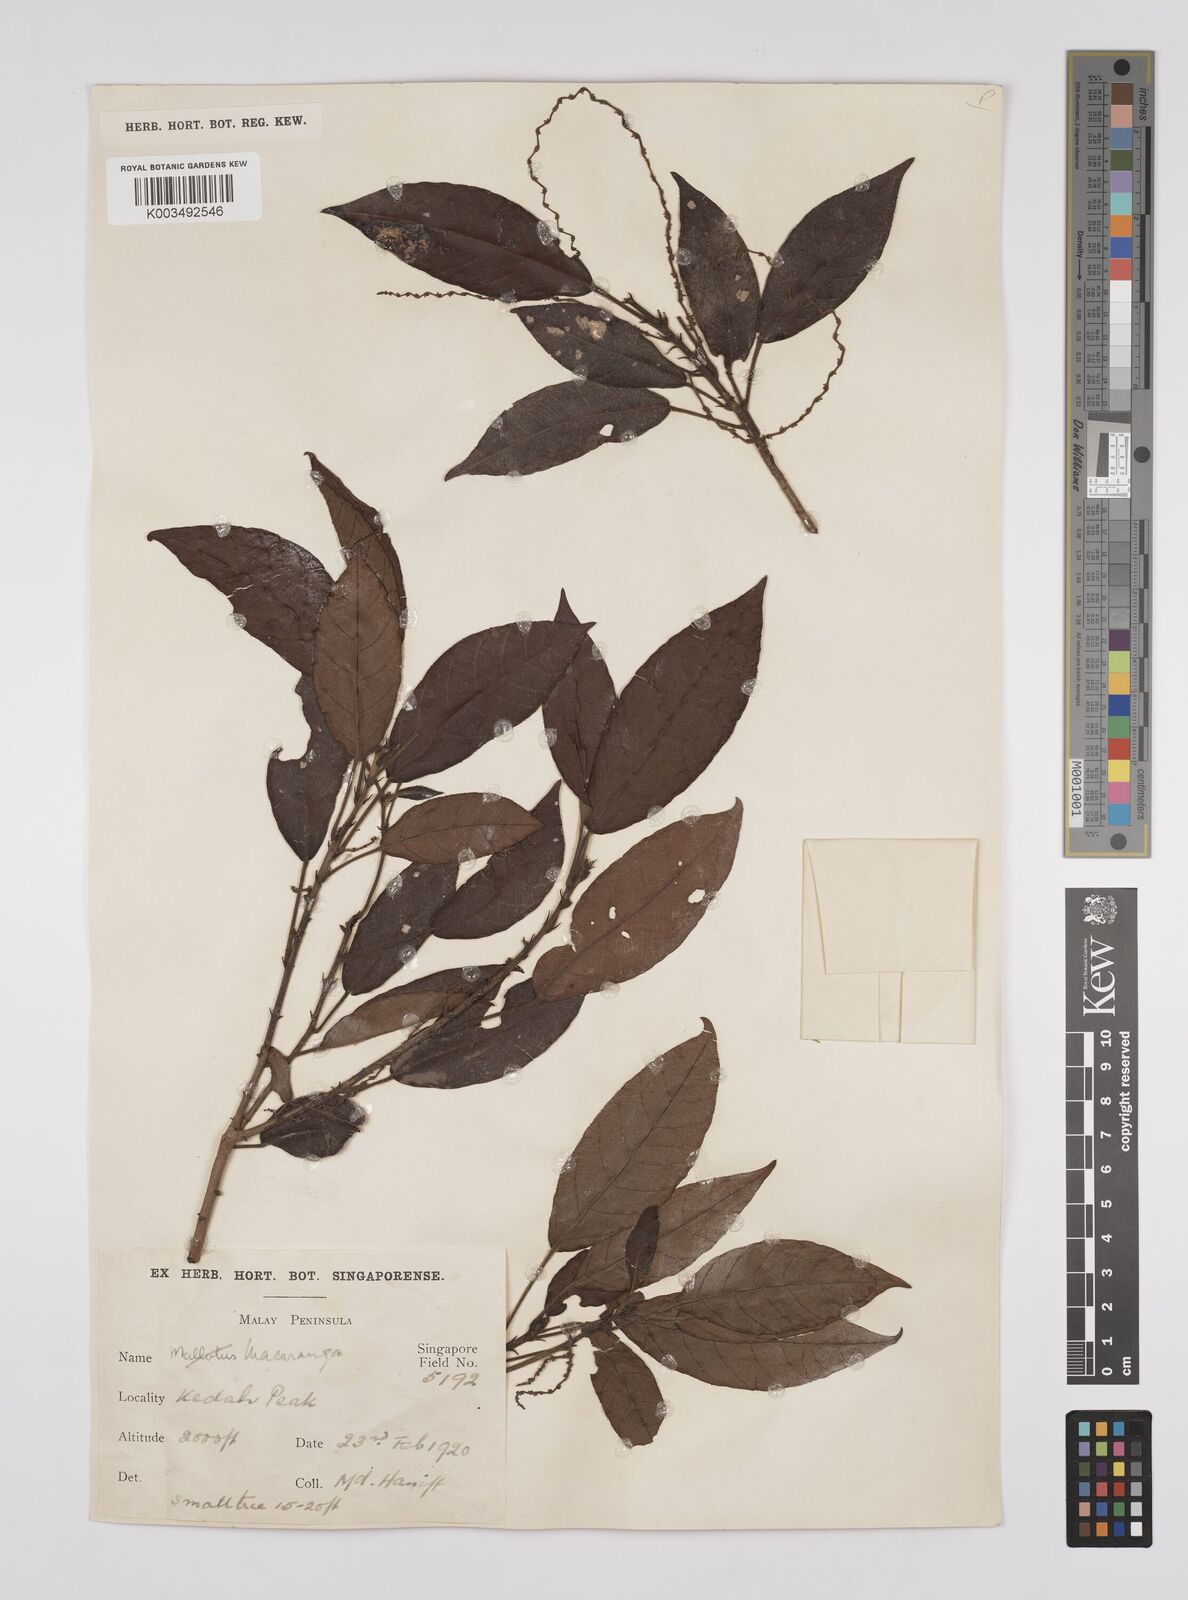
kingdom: Plantae
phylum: Tracheophyta
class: Magnoliopsida
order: Malpighiales
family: Euphorbiaceae
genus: Macaranga
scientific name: Macaranga lowii
